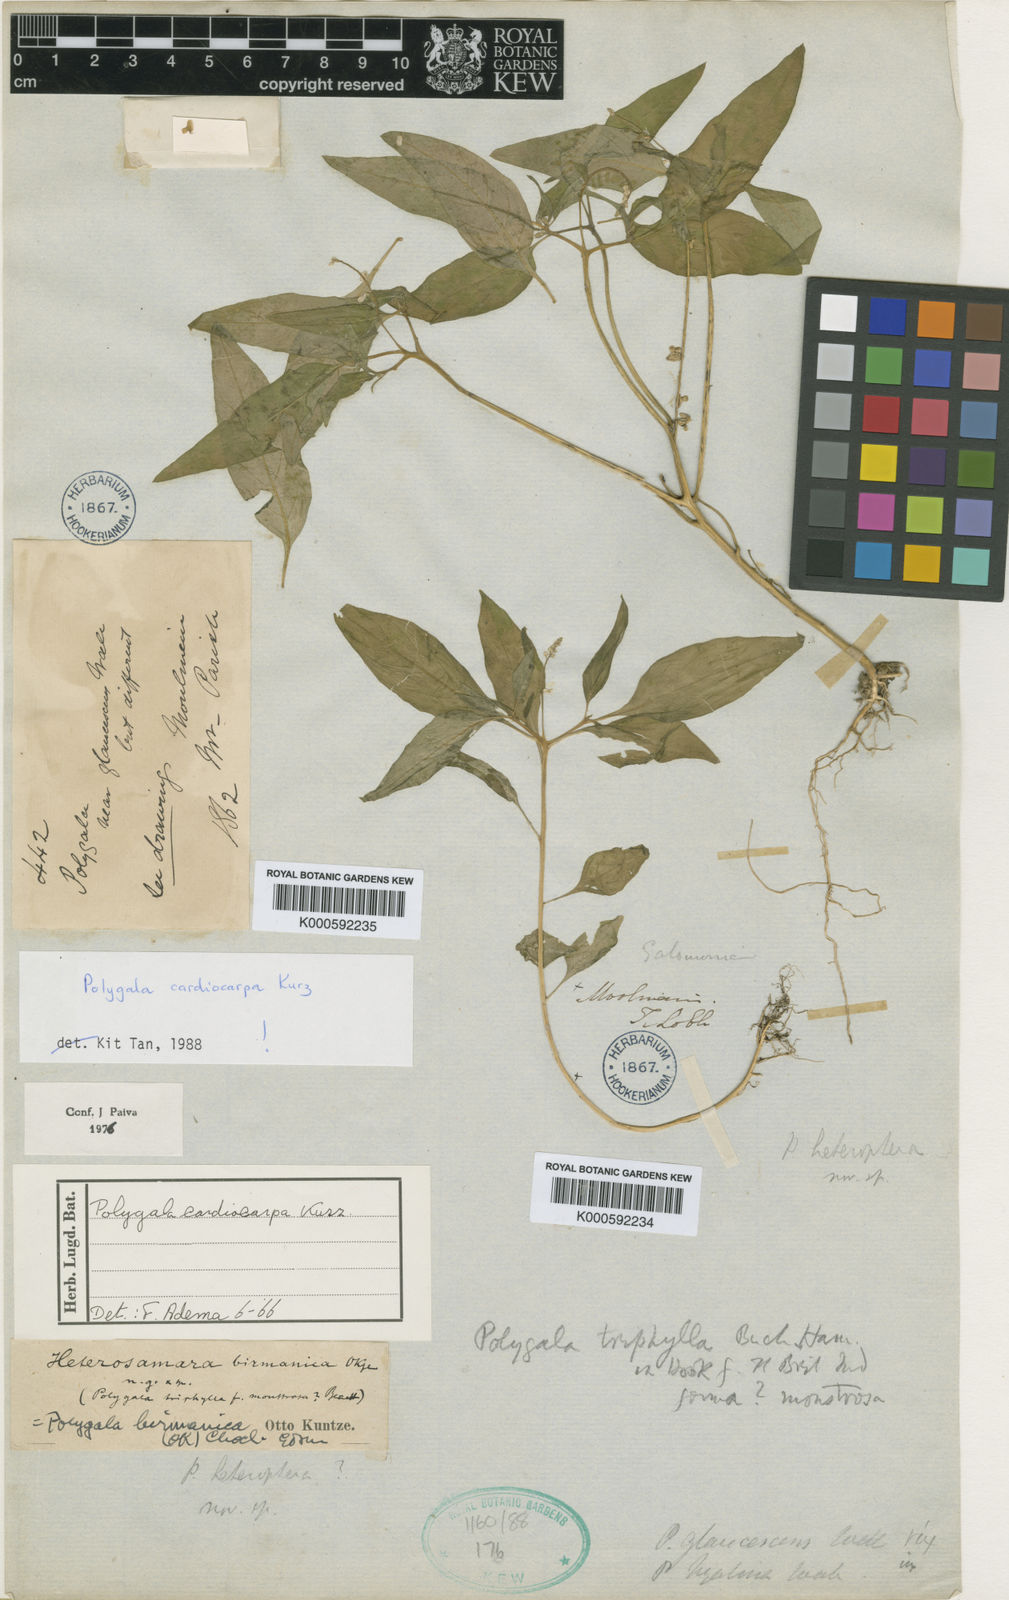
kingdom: Plantae
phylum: Tracheophyta
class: Magnoliopsida
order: Fabales
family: Polygalaceae
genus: Polygala
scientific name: Polygala cardiocarpa
